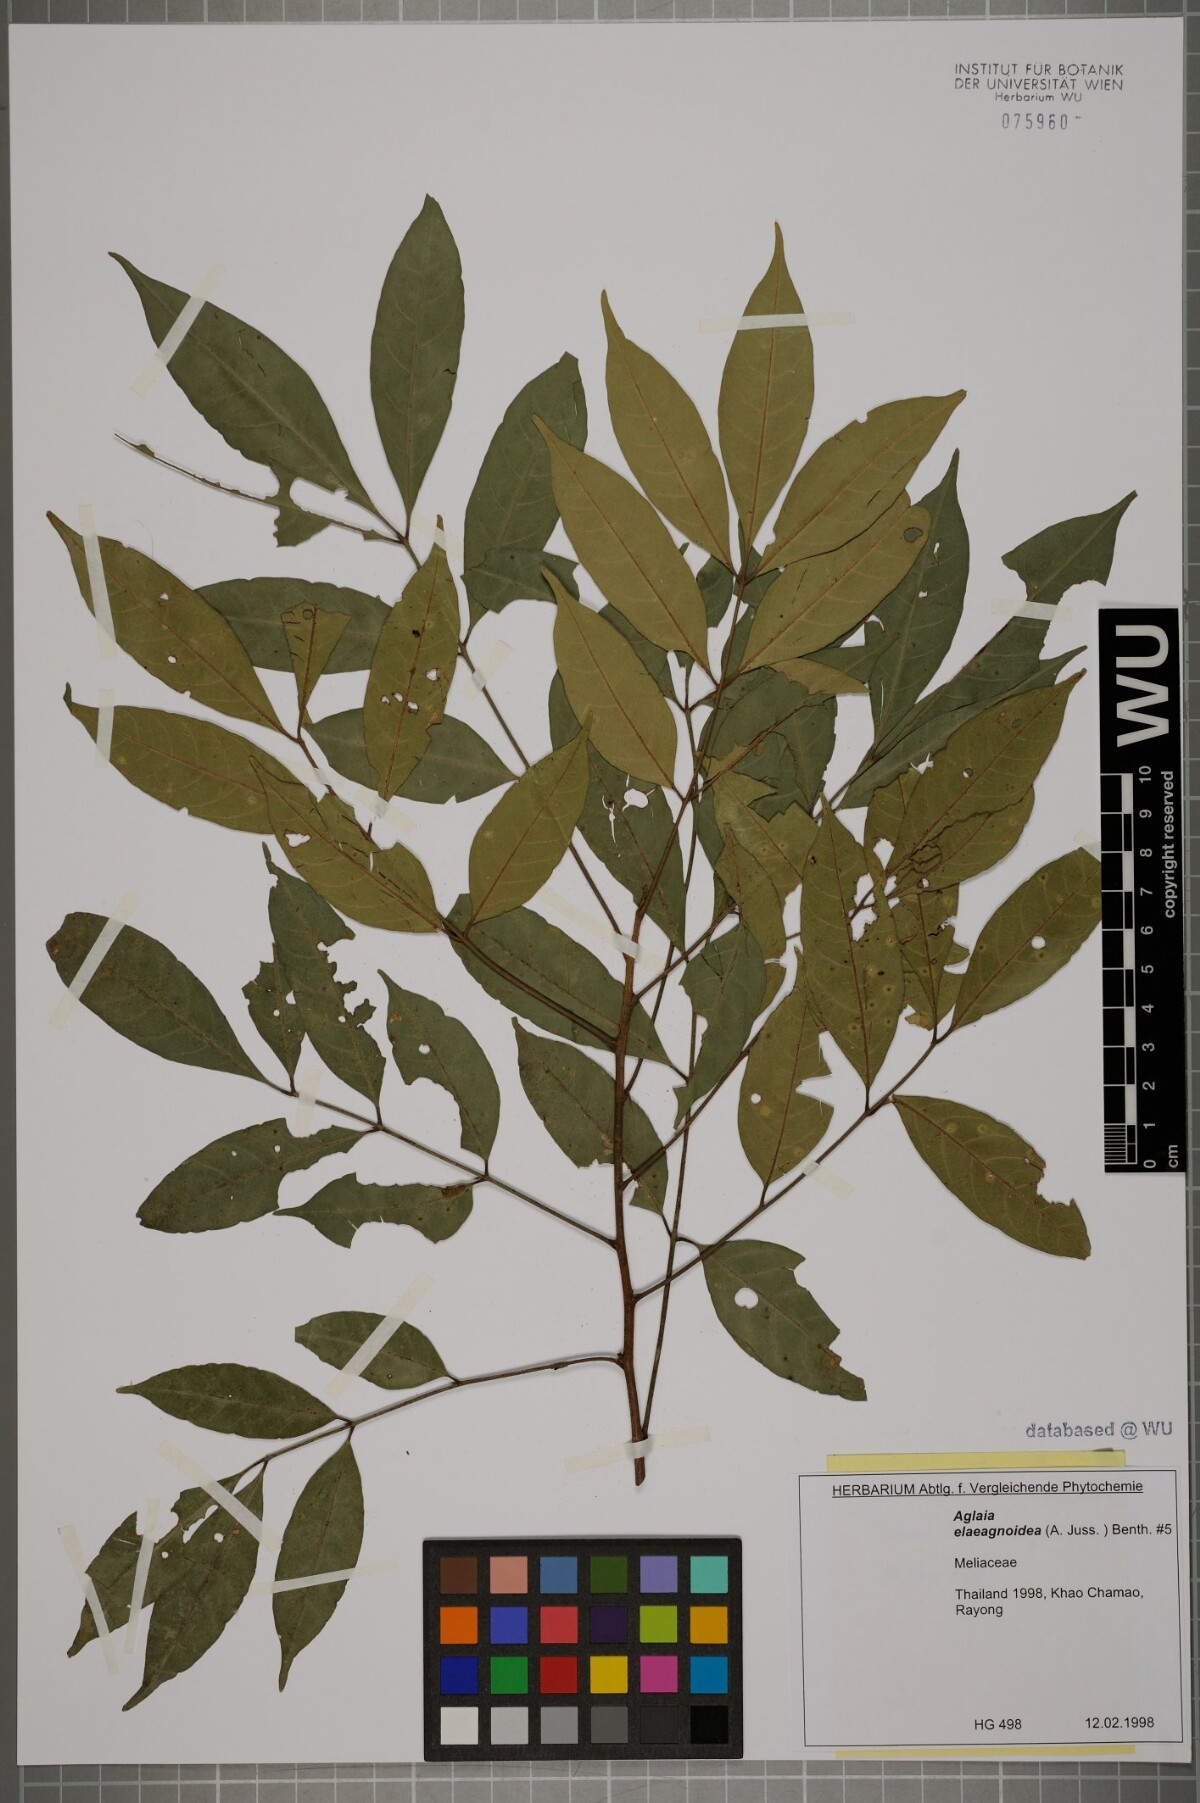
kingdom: Plantae
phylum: Tracheophyta
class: Magnoliopsida
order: Sapindales
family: Meliaceae
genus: Aglaia
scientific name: Aglaia elaeagnoidea
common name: Droopyleaf
